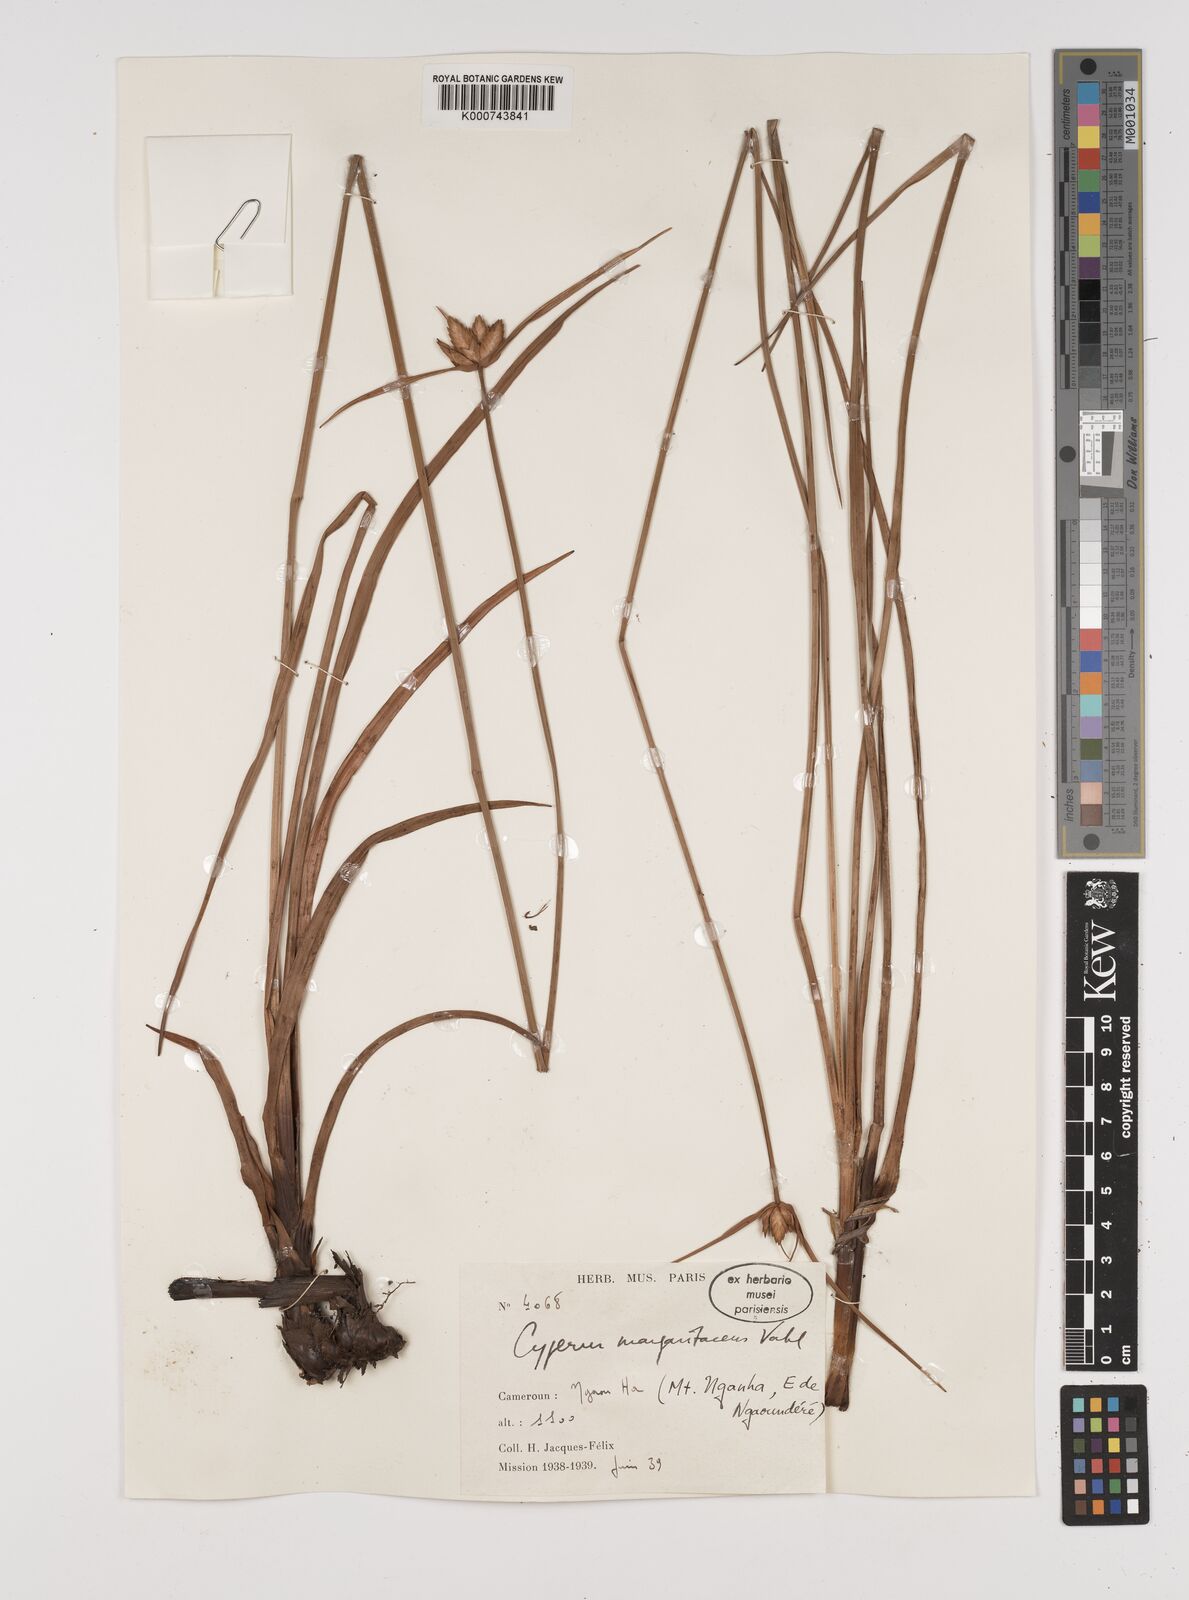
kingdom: Plantae
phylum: Tracheophyta
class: Liliopsida
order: Poales
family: Cyperaceae
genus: Cyperus
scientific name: Cyperus margaritaceus
